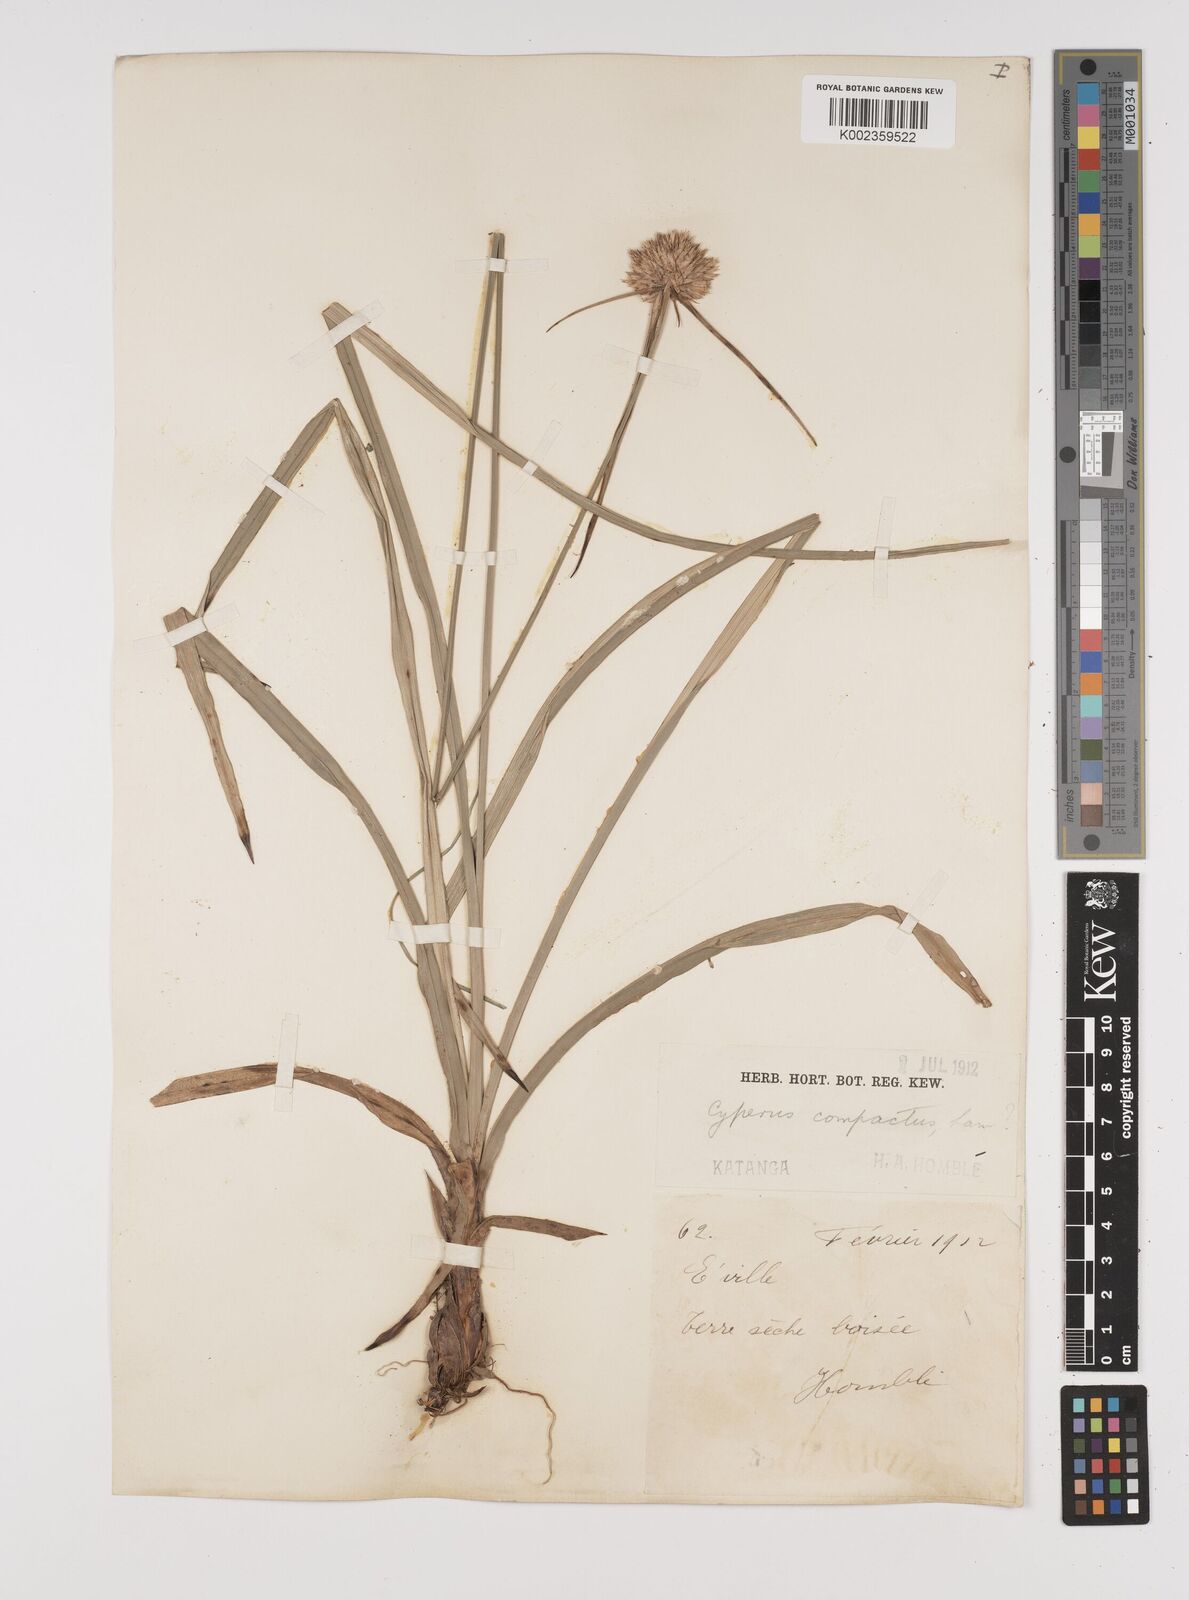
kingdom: Plantae
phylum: Tracheophyta
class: Liliopsida
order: Poales
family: Cyperaceae
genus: Cyperus
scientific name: Cyperus angolensis
